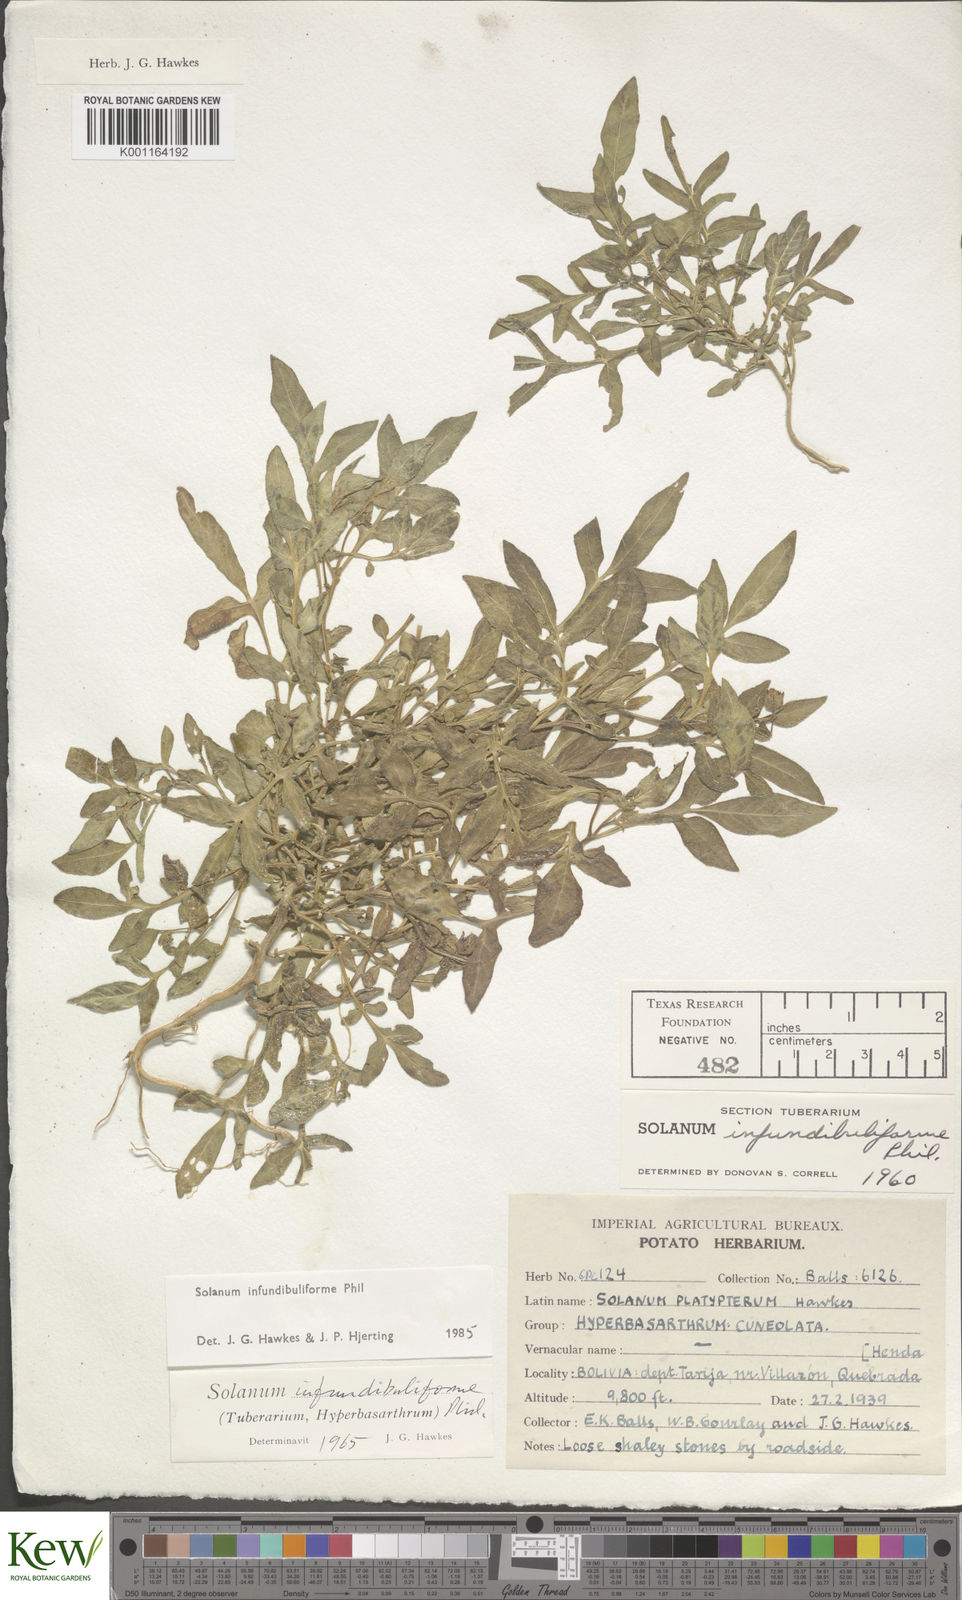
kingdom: Plantae
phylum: Tracheophyta
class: Magnoliopsida
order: Solanales
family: Solanaceae
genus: Solanum
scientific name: Solanum infundibuliforme
